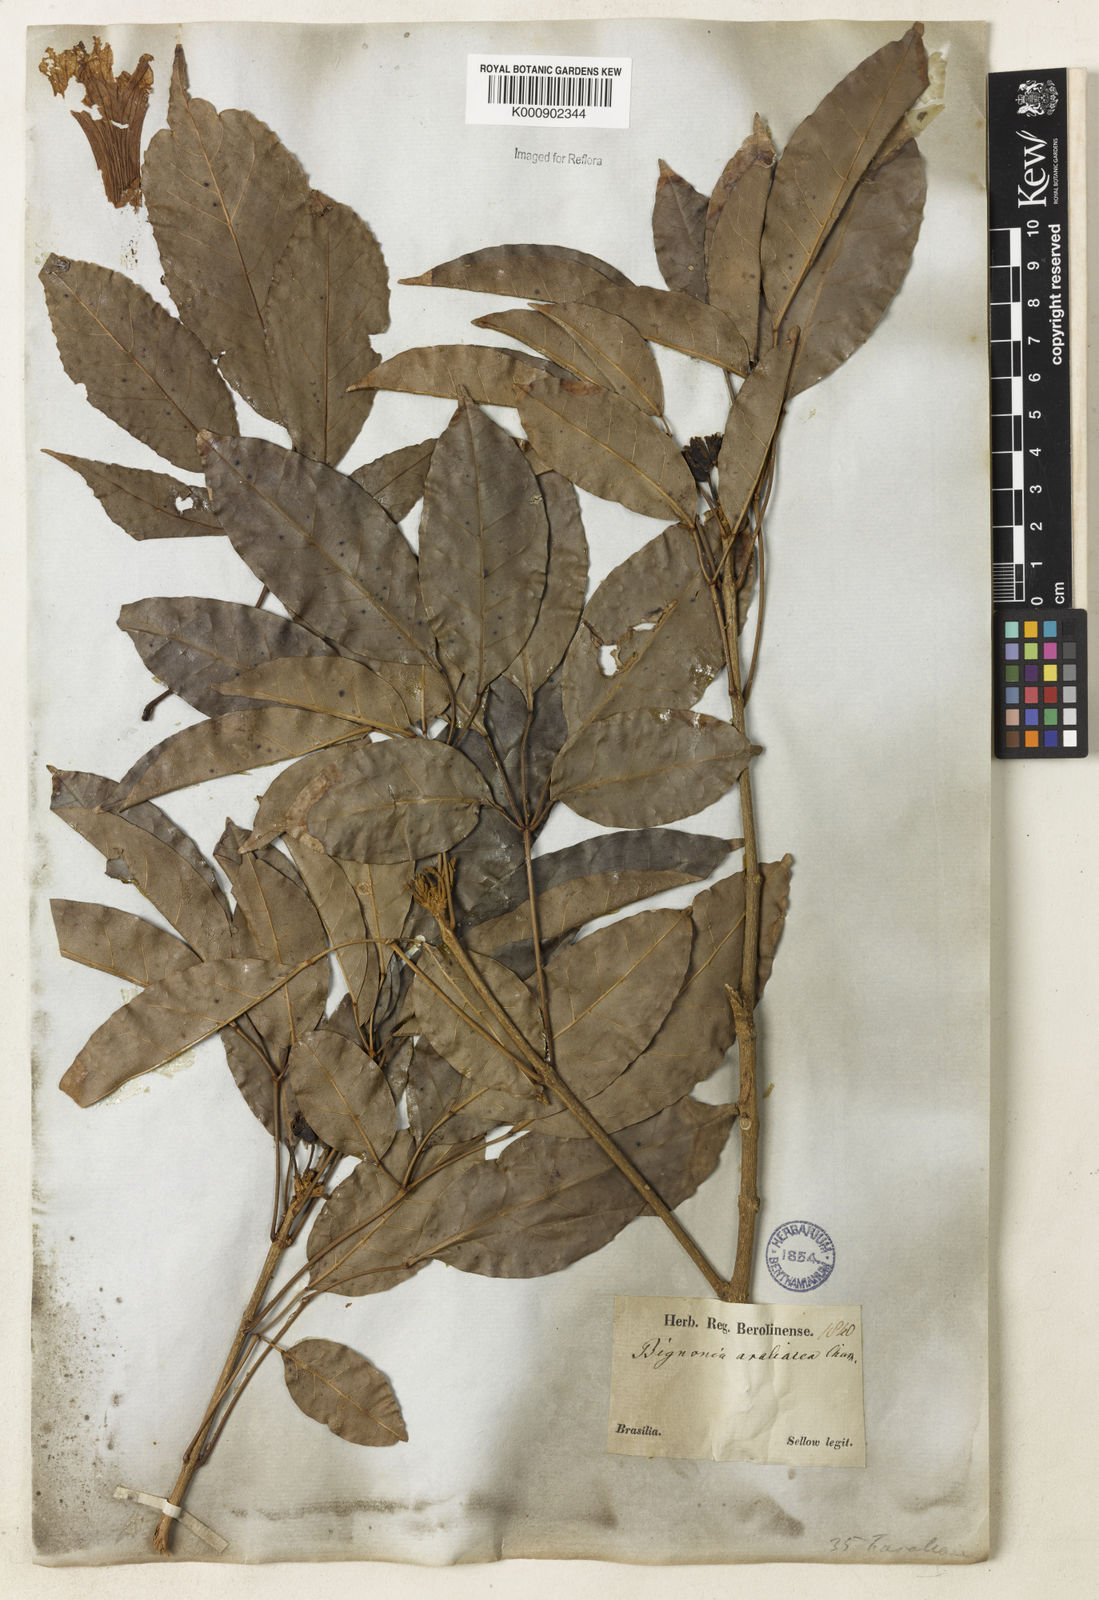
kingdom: Plantae
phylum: Tracheophyta
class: Magnoliopsida
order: Lamiales
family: Bignoniaceae
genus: Handroanthus
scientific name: Handroanthus serratifolius
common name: Yellow ipe
